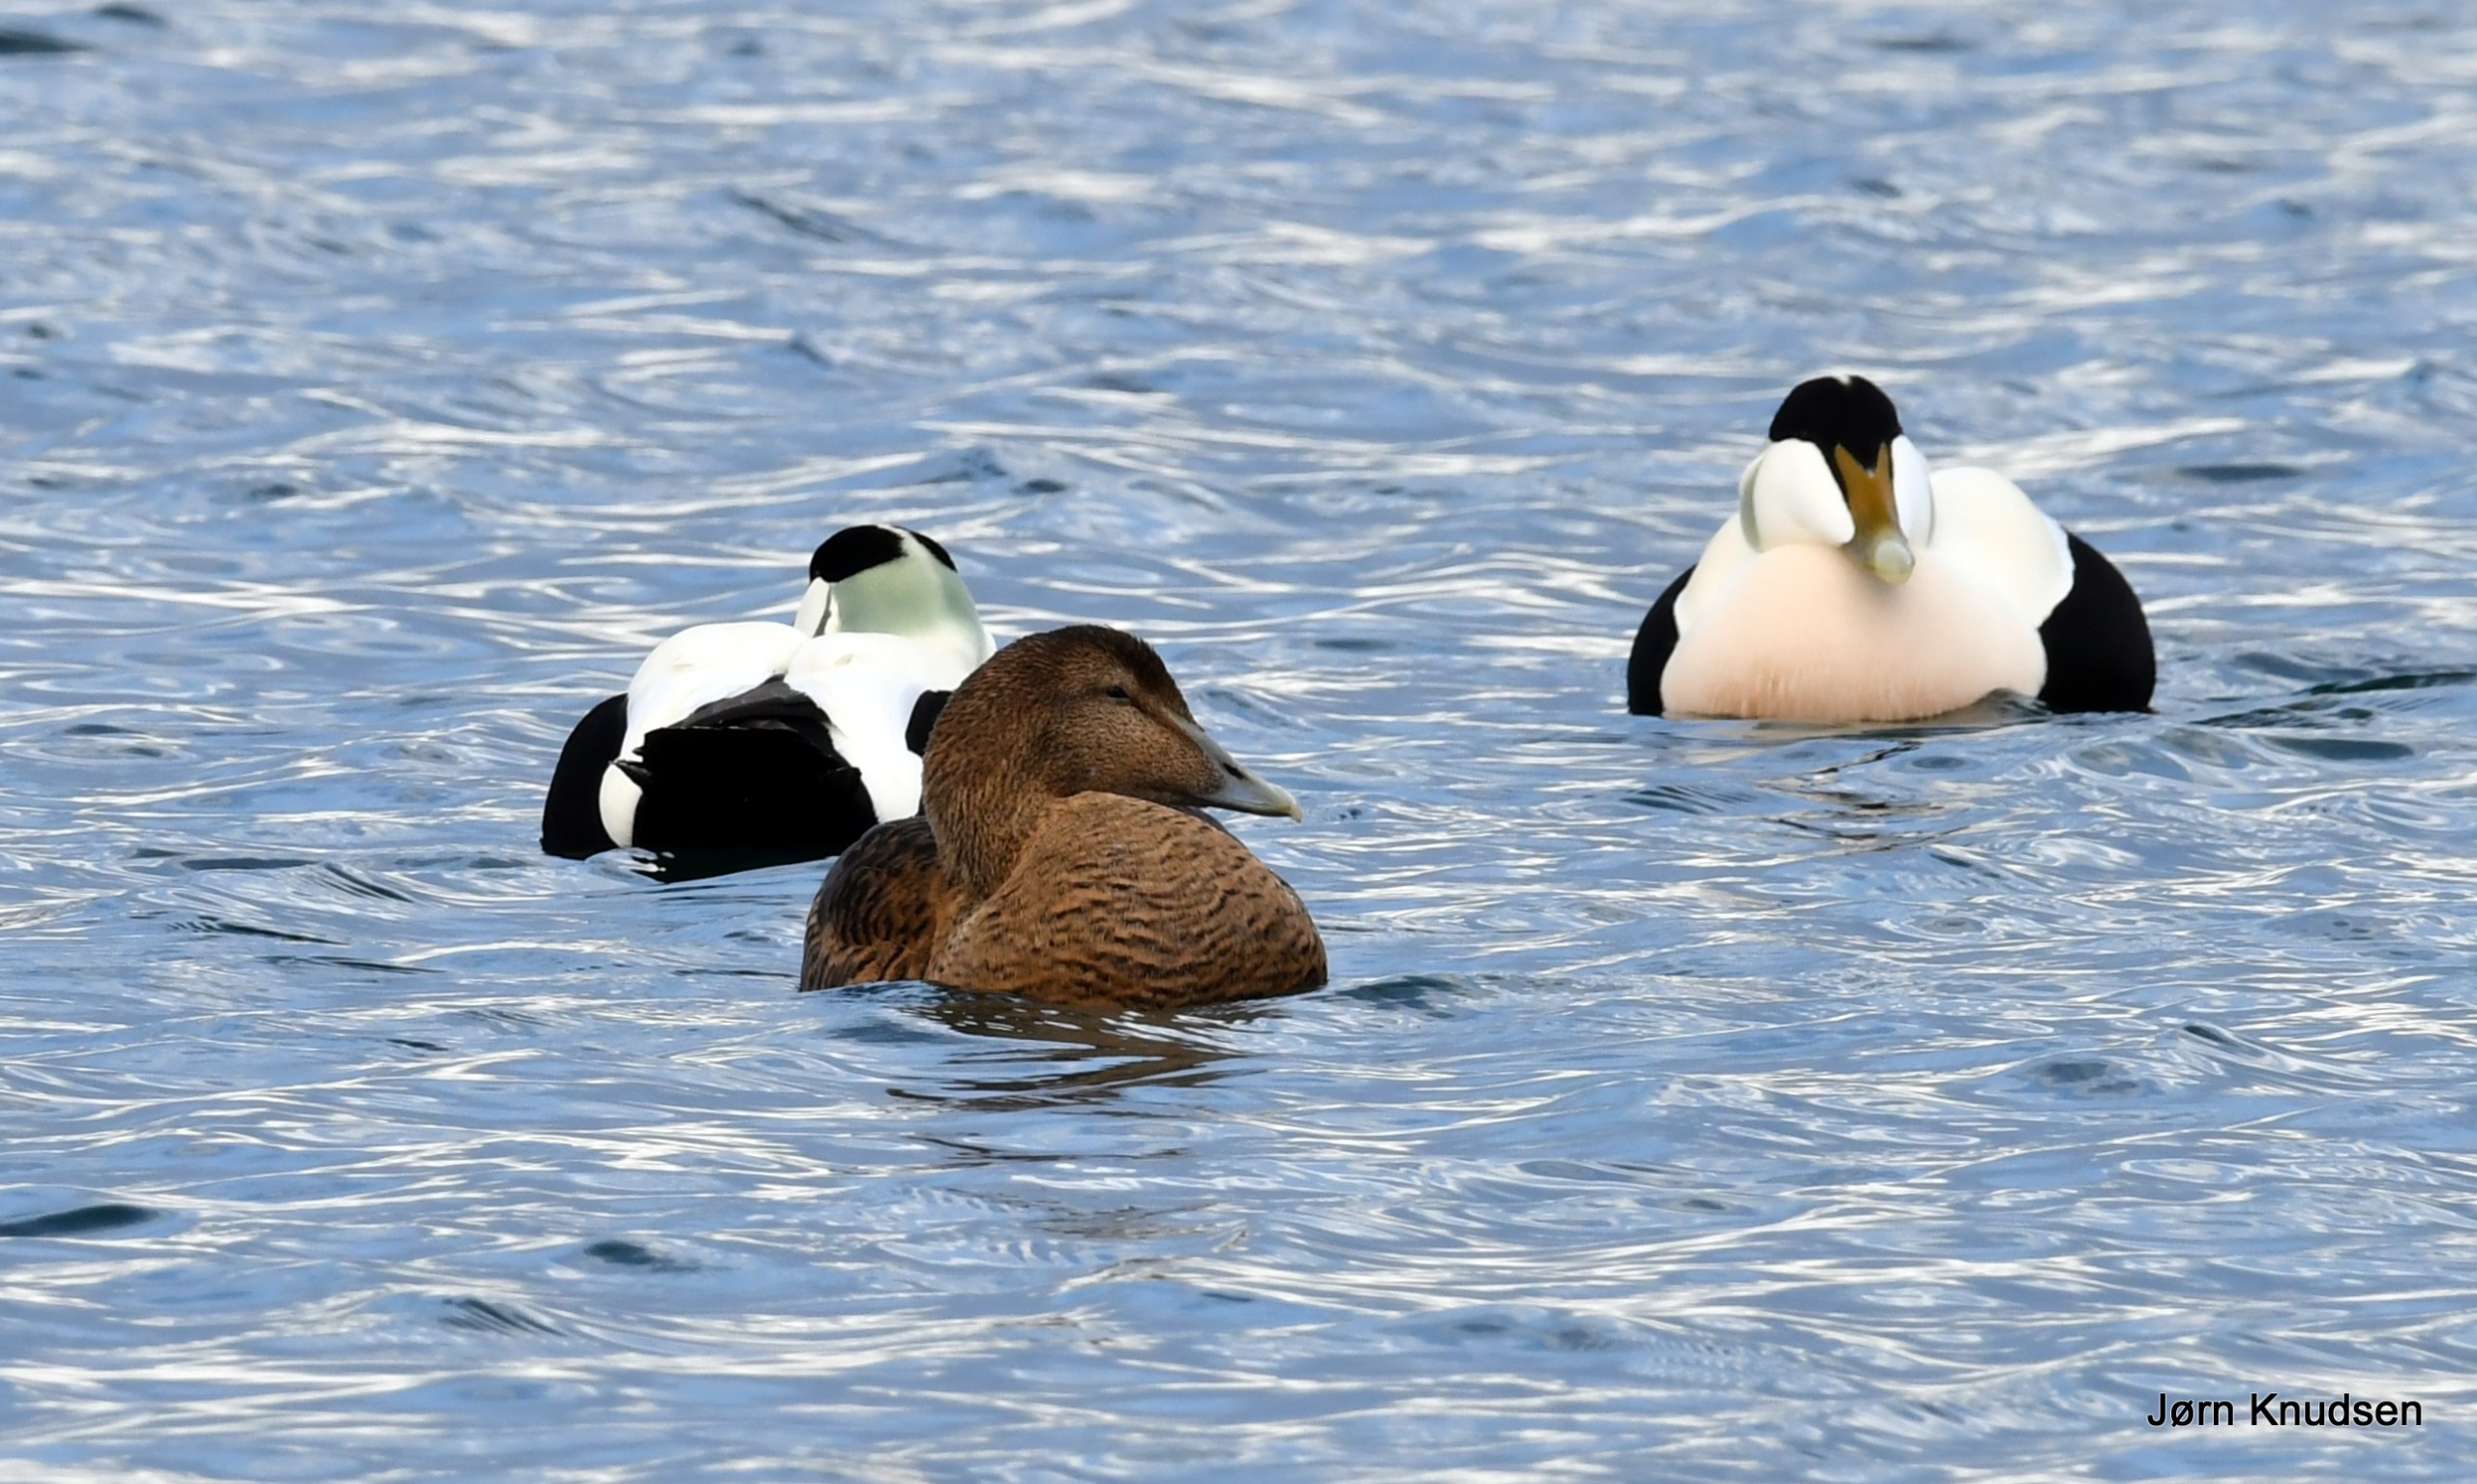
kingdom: Animalia
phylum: Chordata
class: Aves
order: Anseriformes
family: Anatidae
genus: Somateria
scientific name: Somateria mollissima
